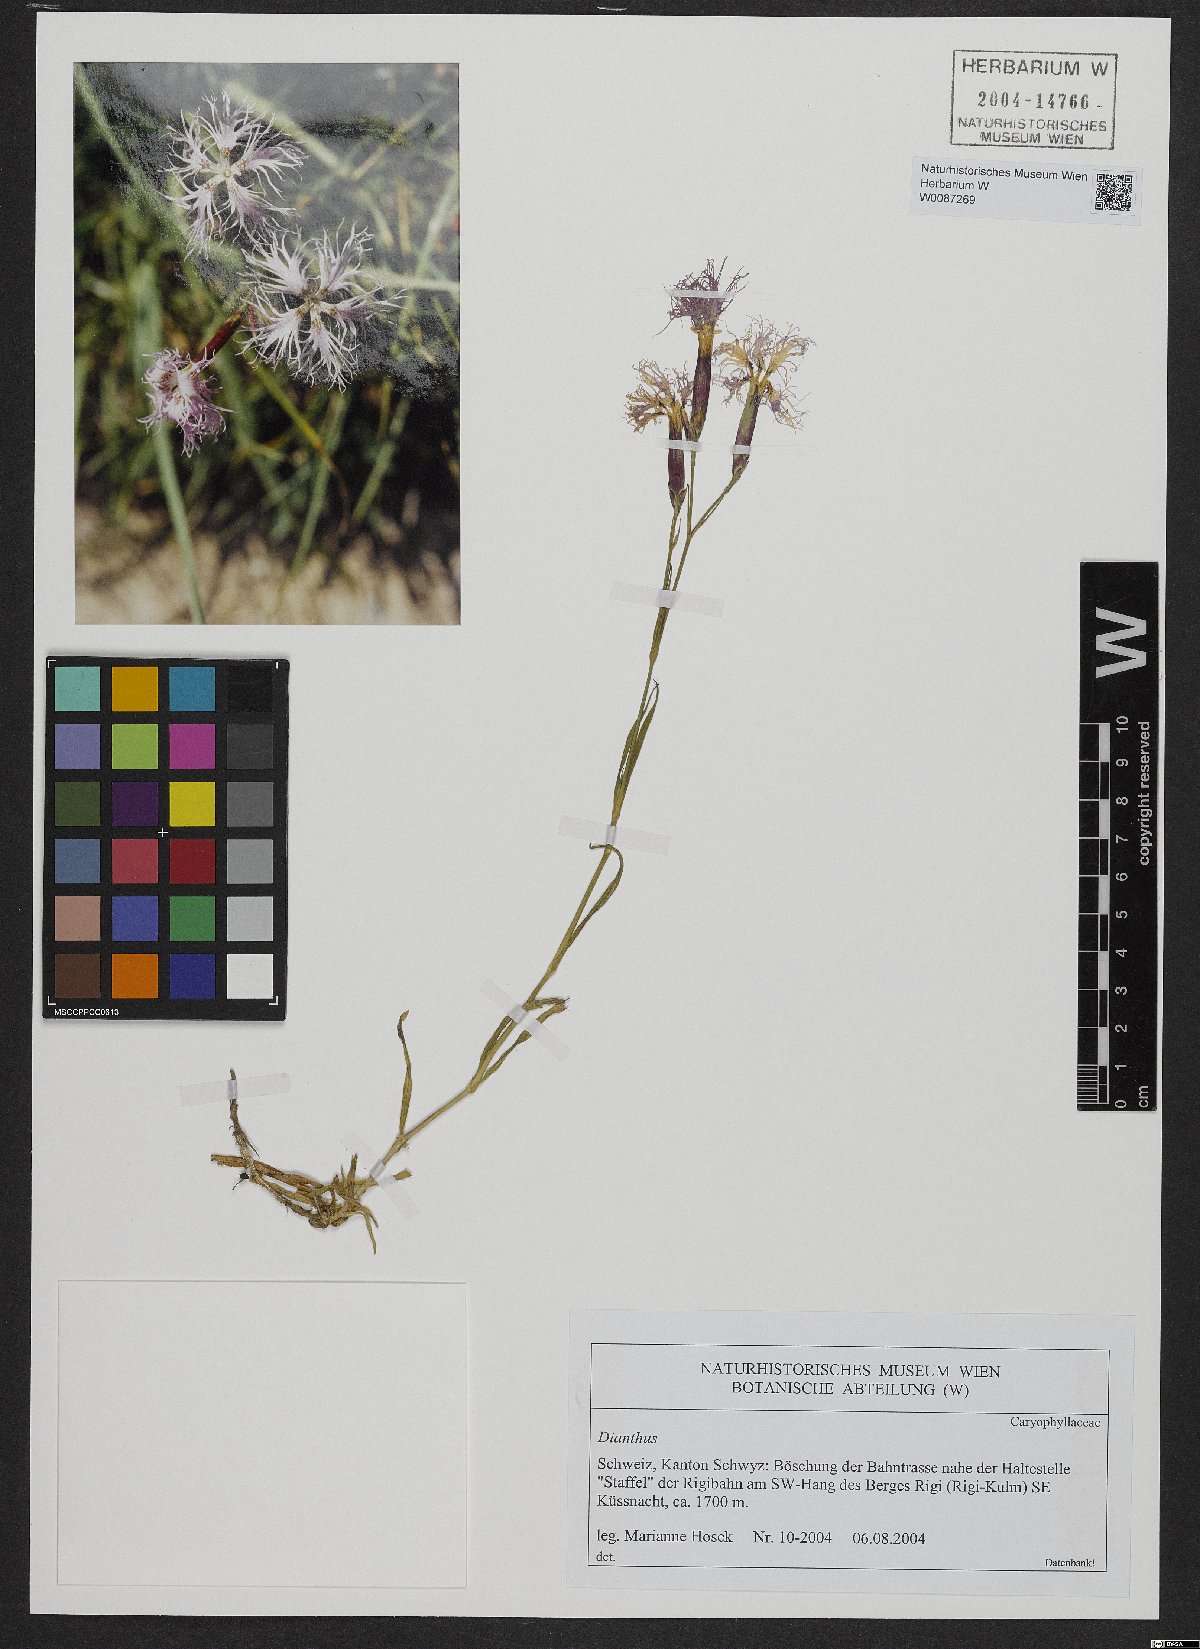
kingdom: Plantae
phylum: Tracheophyta
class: Magnoliopsida
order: Caryophyllales
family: Caryophyllaceae
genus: Dianthus
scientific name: Dianthus superbus
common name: Fringed pink
